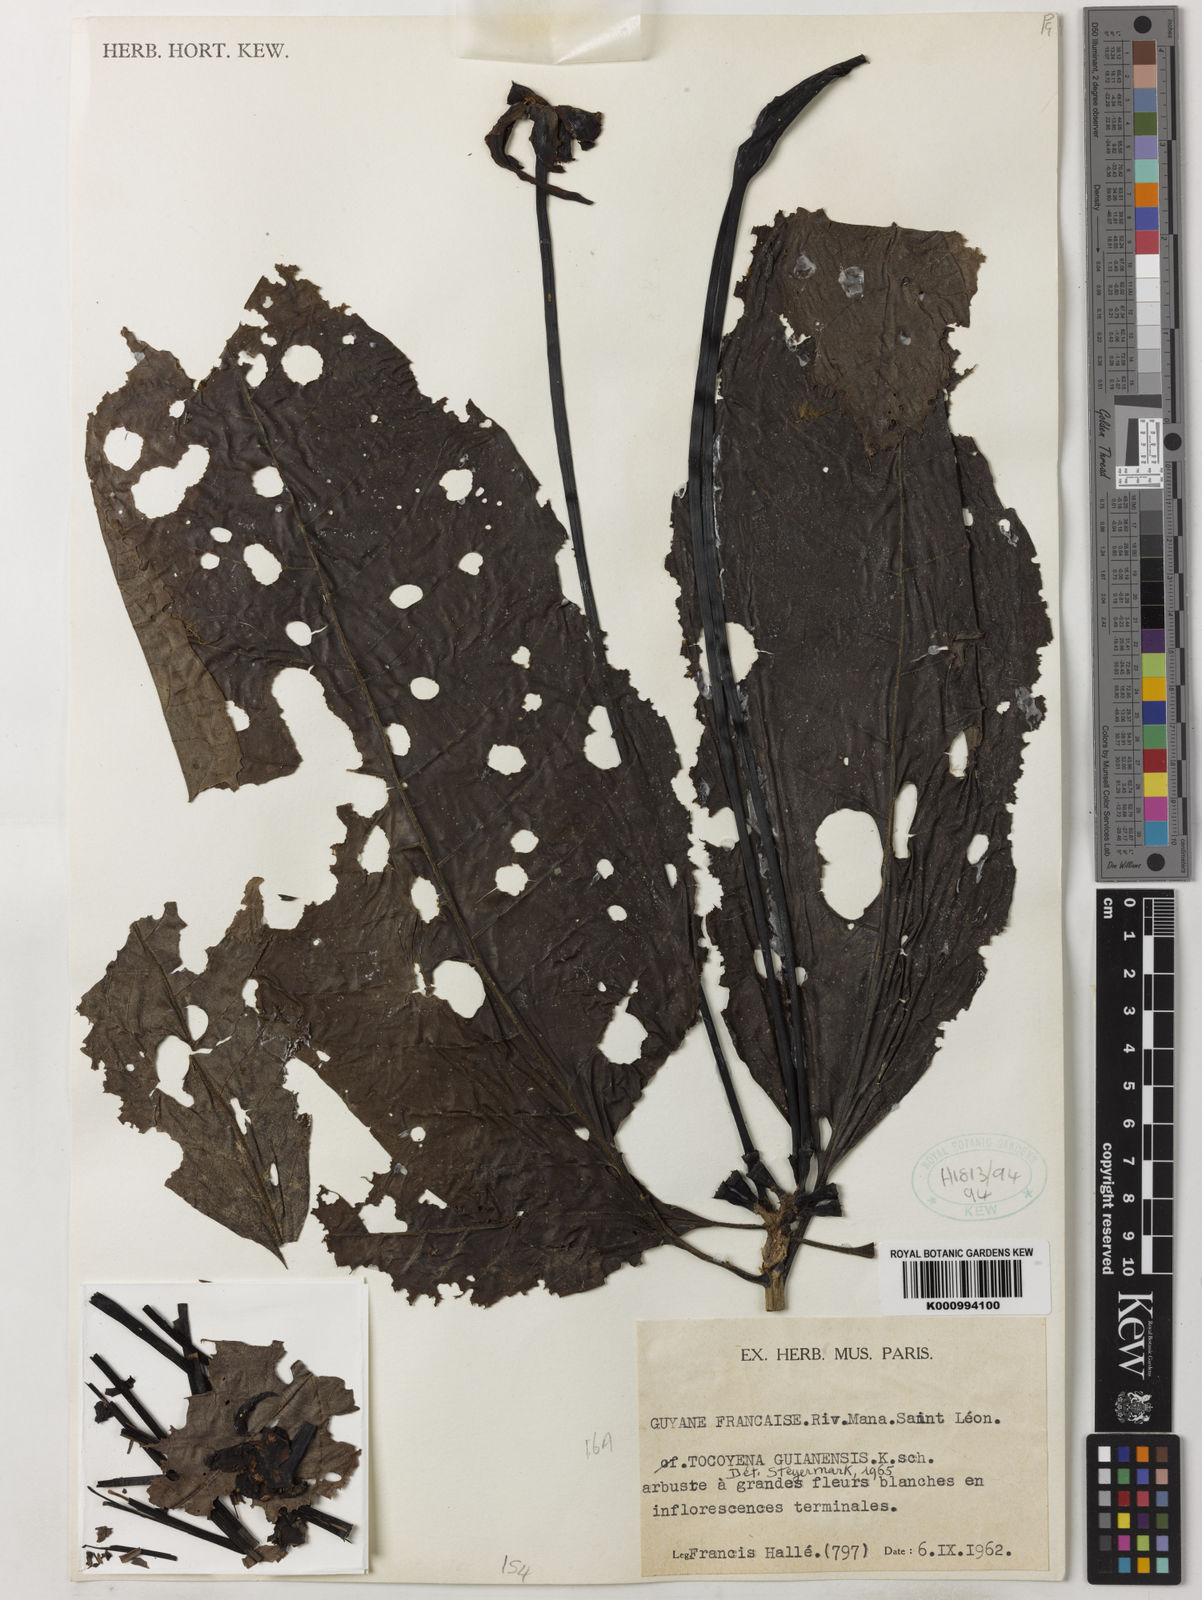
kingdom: Plantae
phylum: Tracheophyta
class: Magnoliopsida
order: Gentianales
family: Rubiaceae
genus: Tocoyena
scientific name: Tocoyena guianensis
